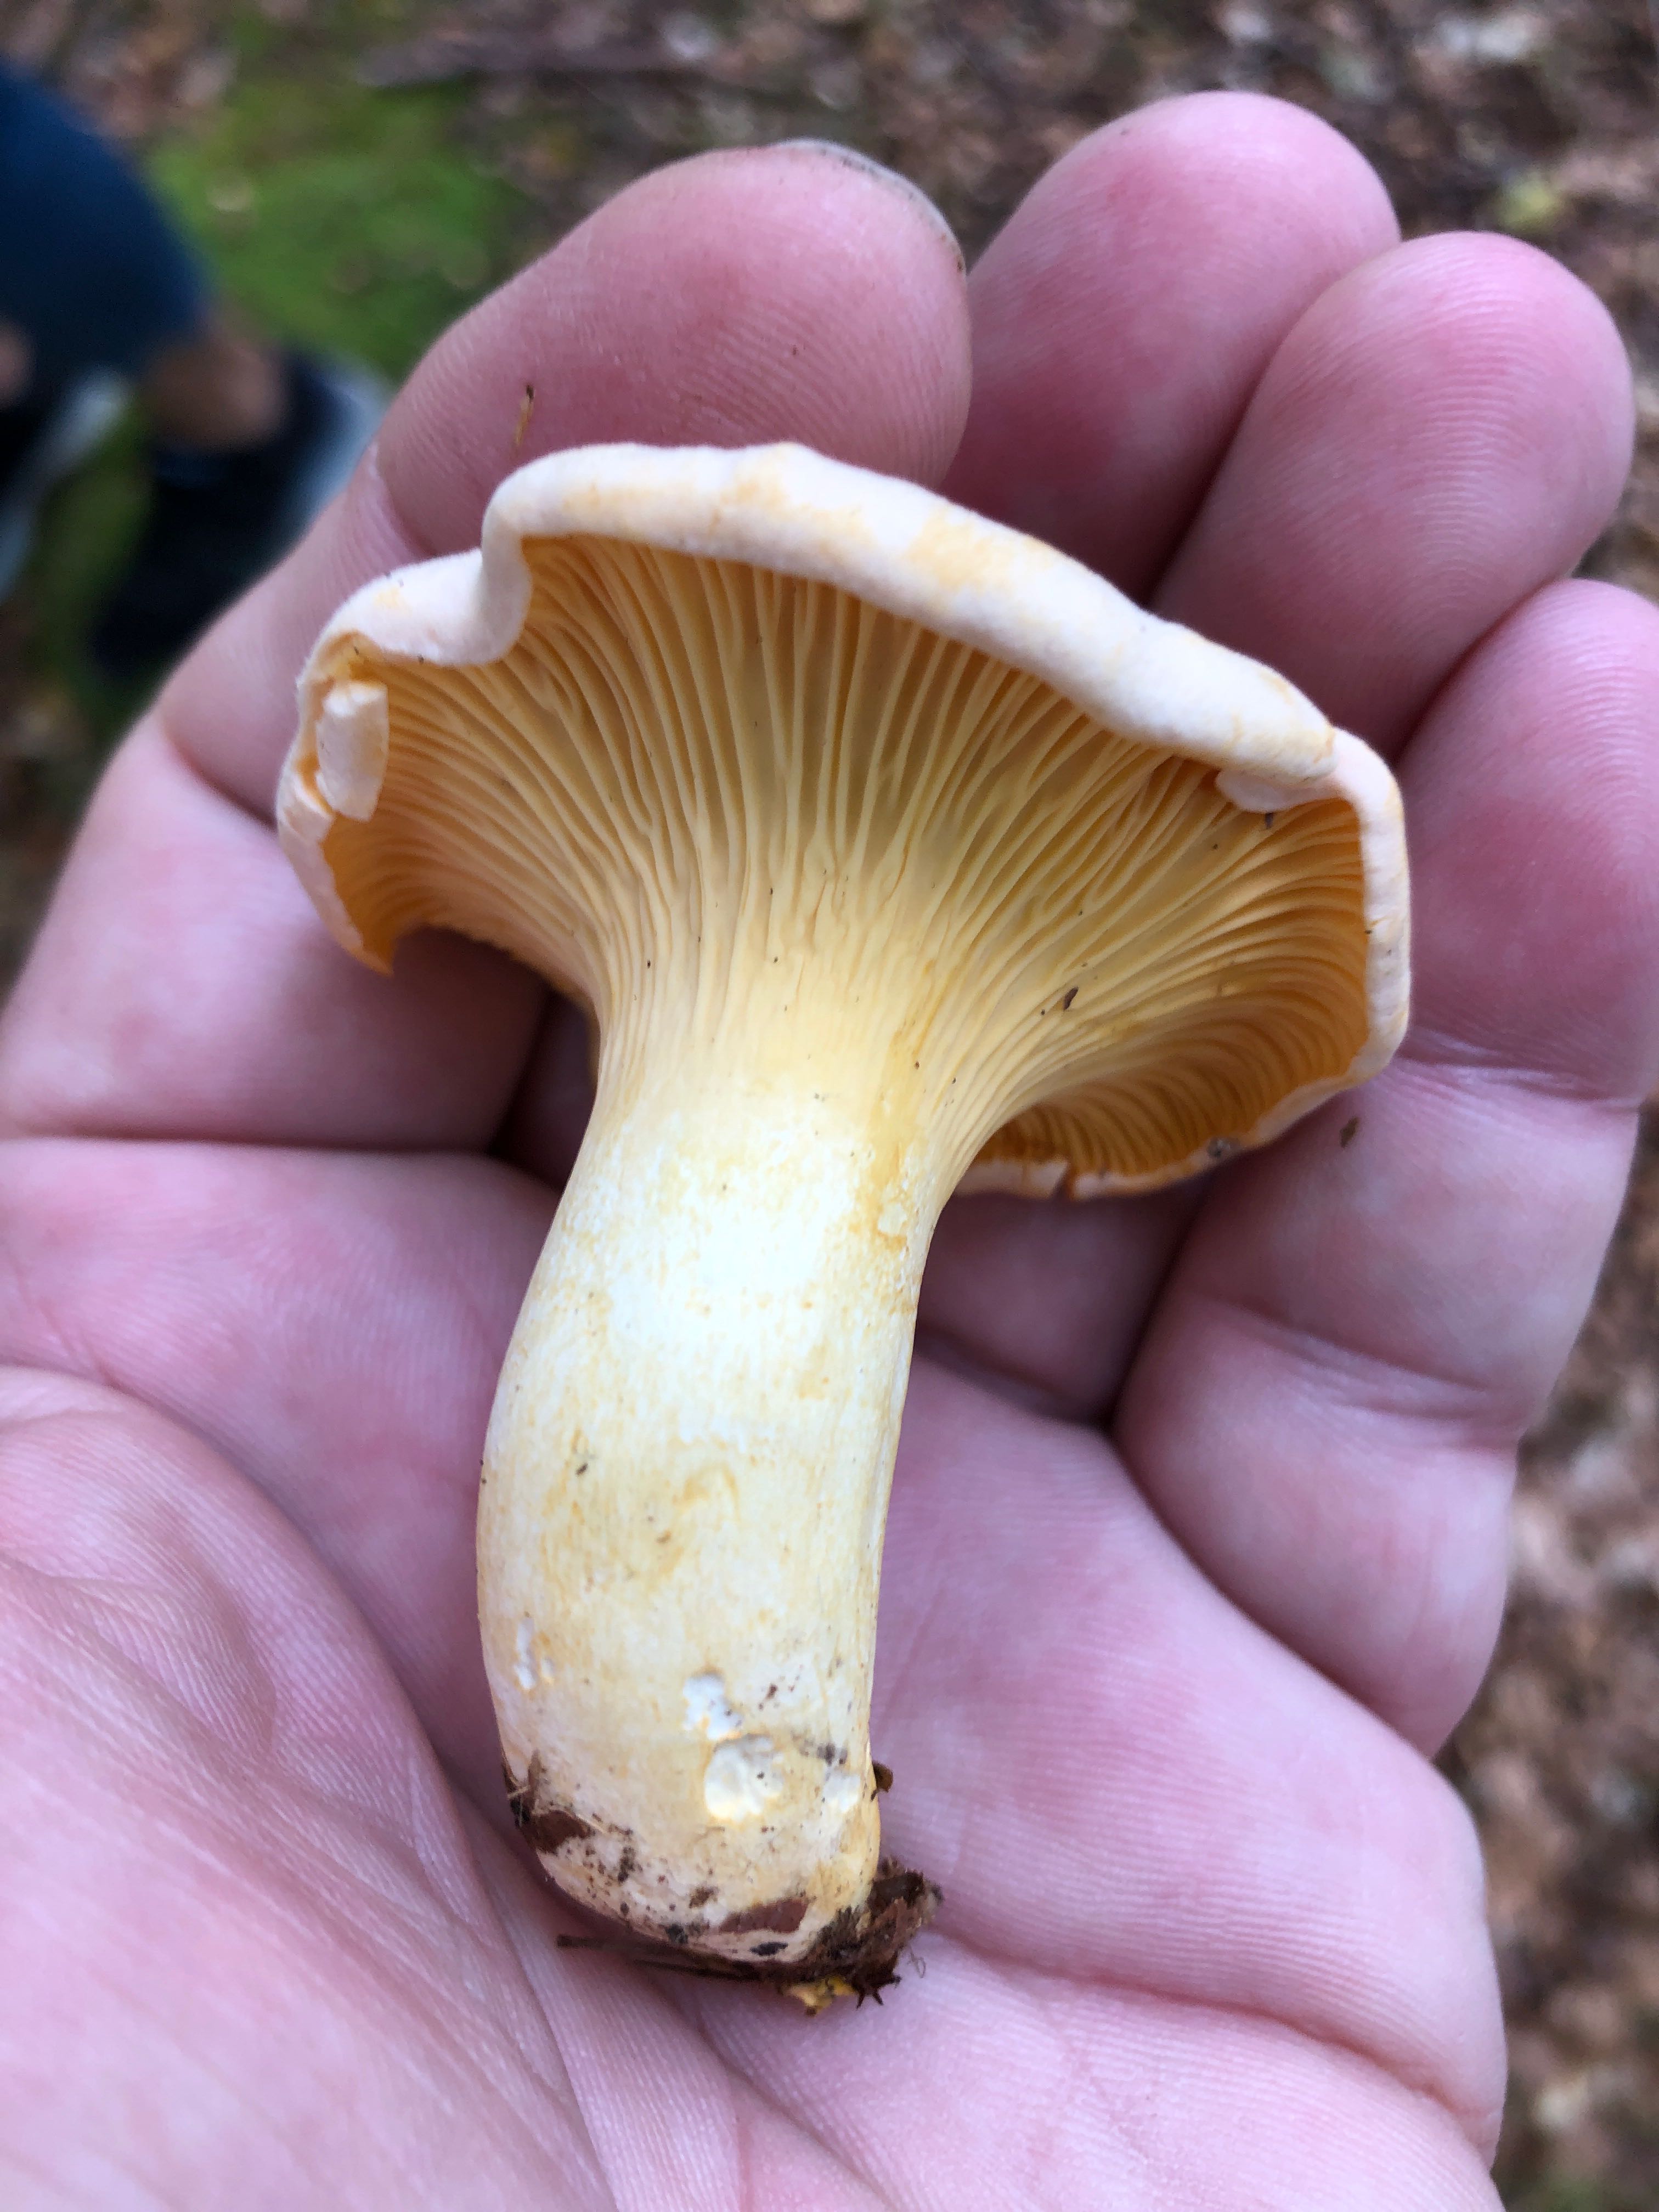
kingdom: Fungi
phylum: Basidiomycota
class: Agaricomycetes
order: Cantharellales
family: Hydnaceae
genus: Cantharellus
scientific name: Cantharellus pallens
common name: bleg kantarel
